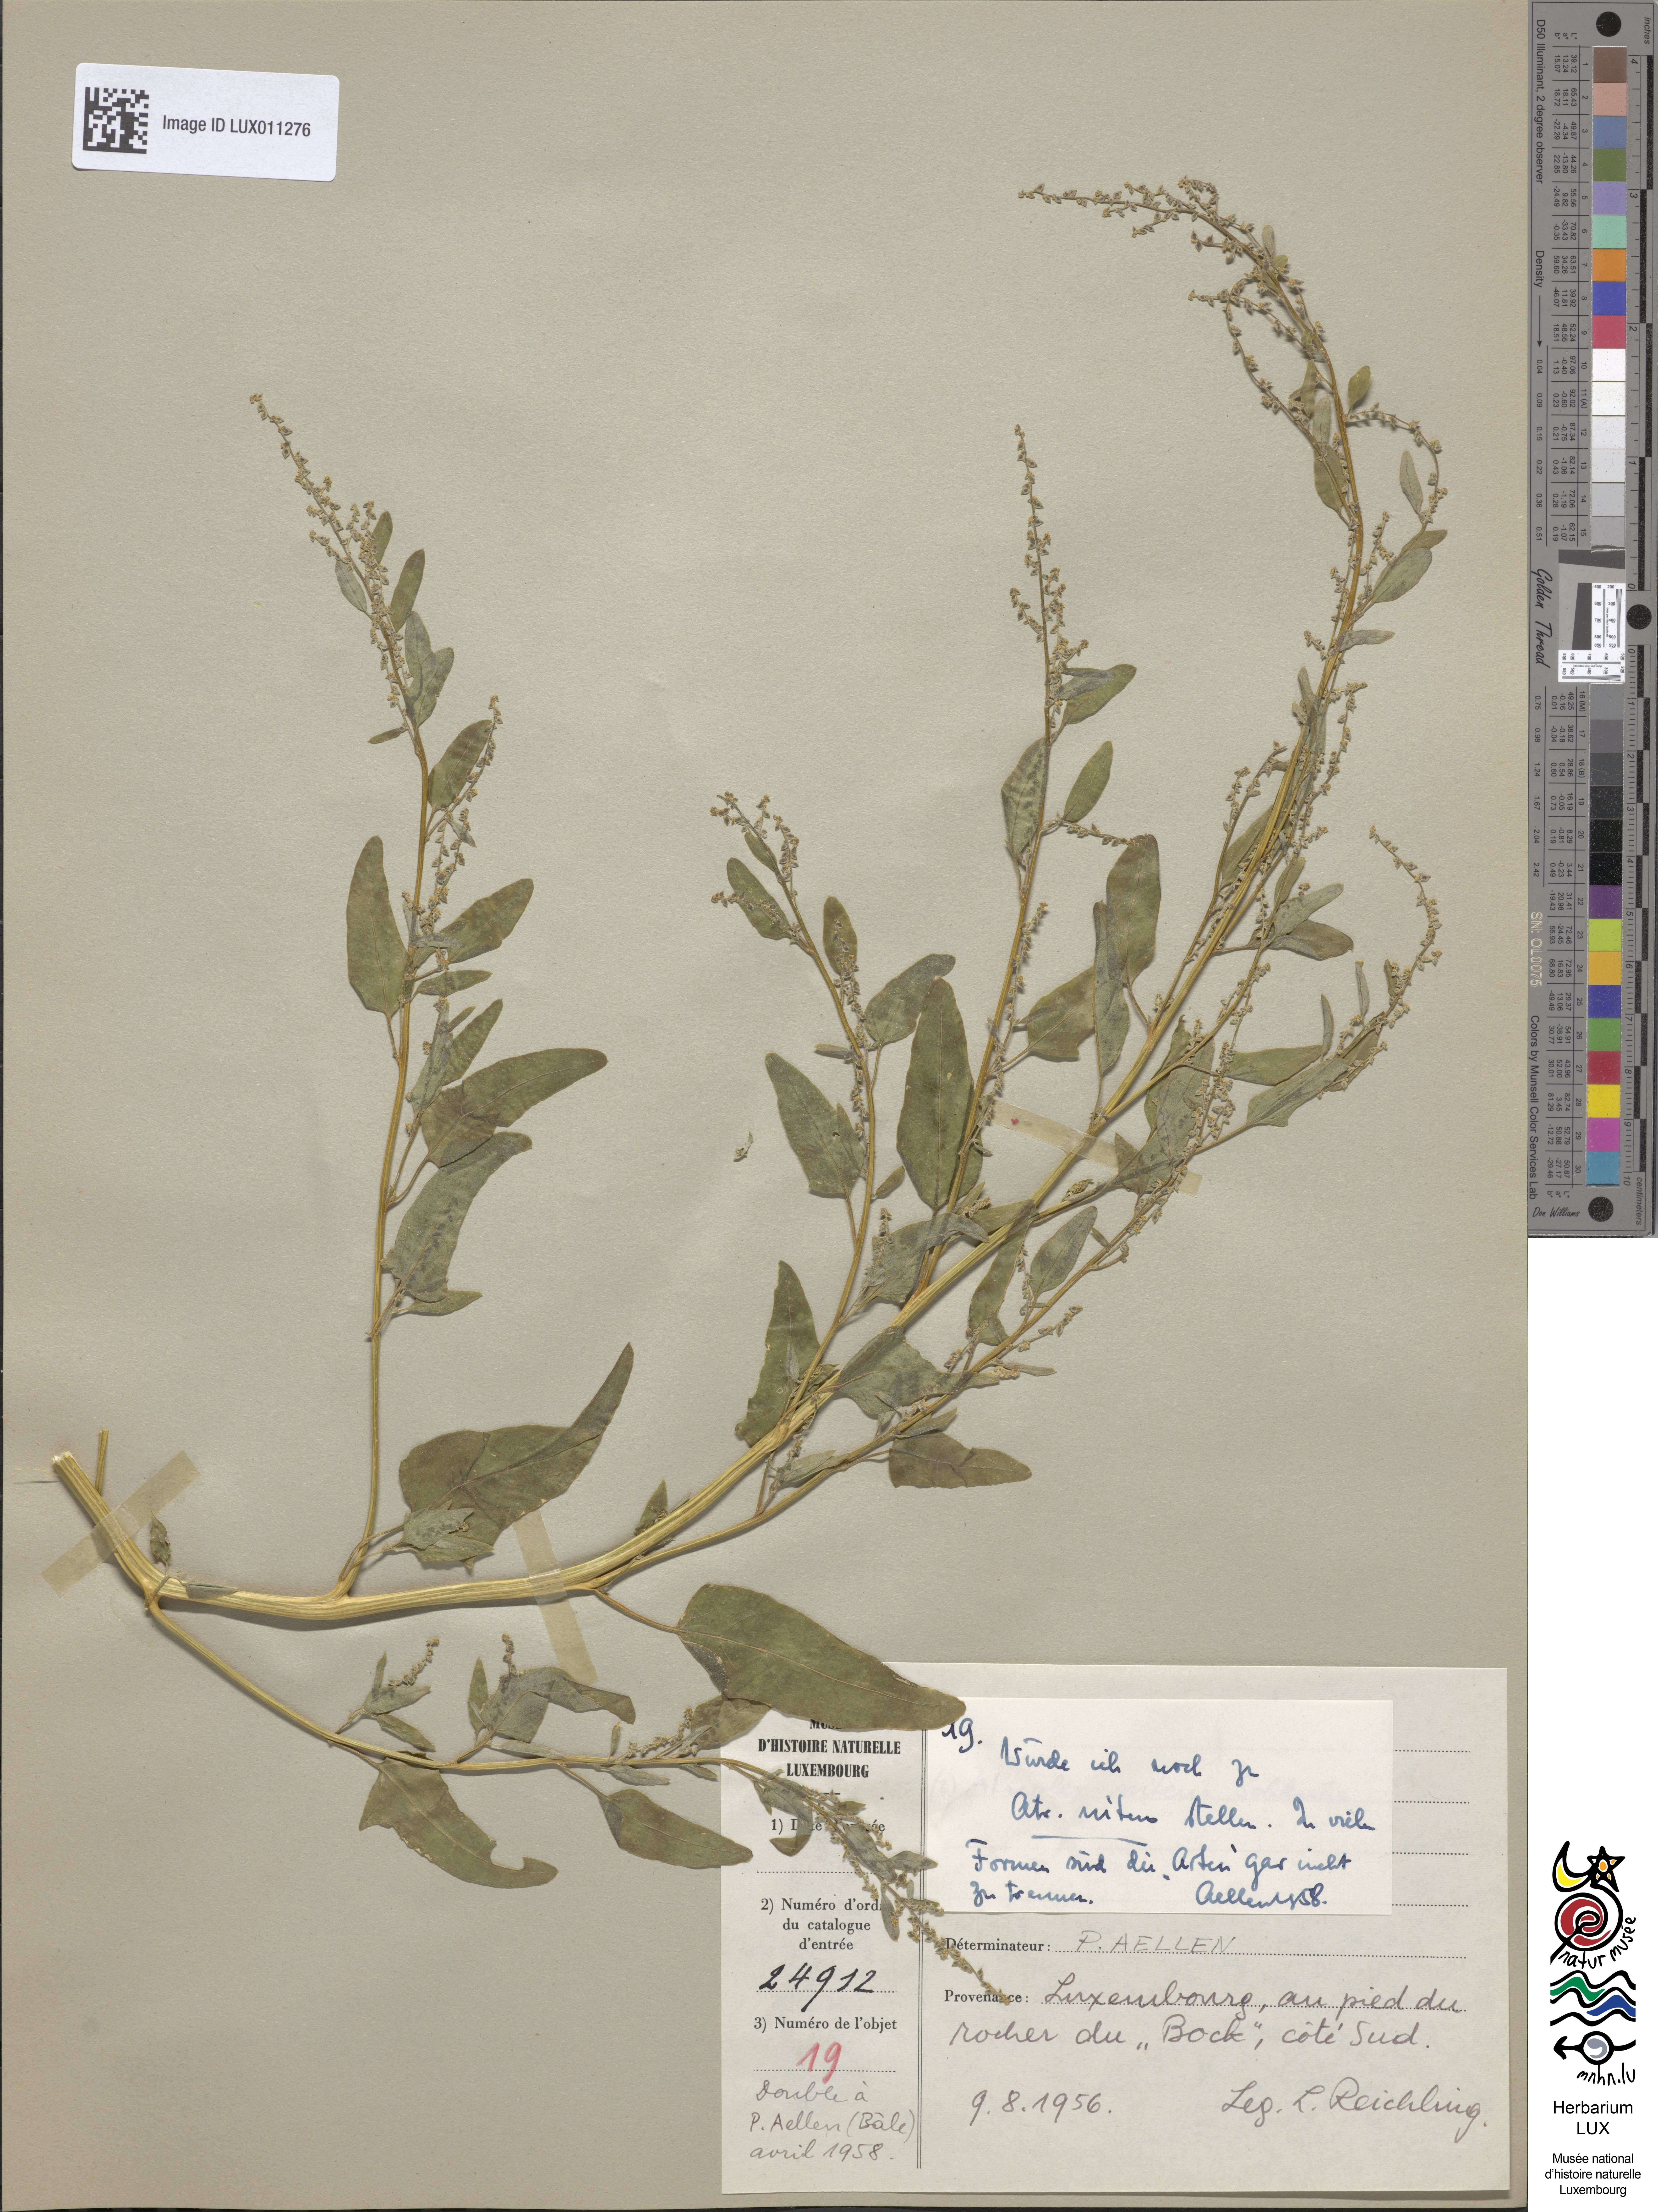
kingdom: Plantae
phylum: Tracheophyta
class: Magnoliopsida
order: Caryophyllales
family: Amaranthaceae
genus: Atriplex
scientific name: Atriplex
